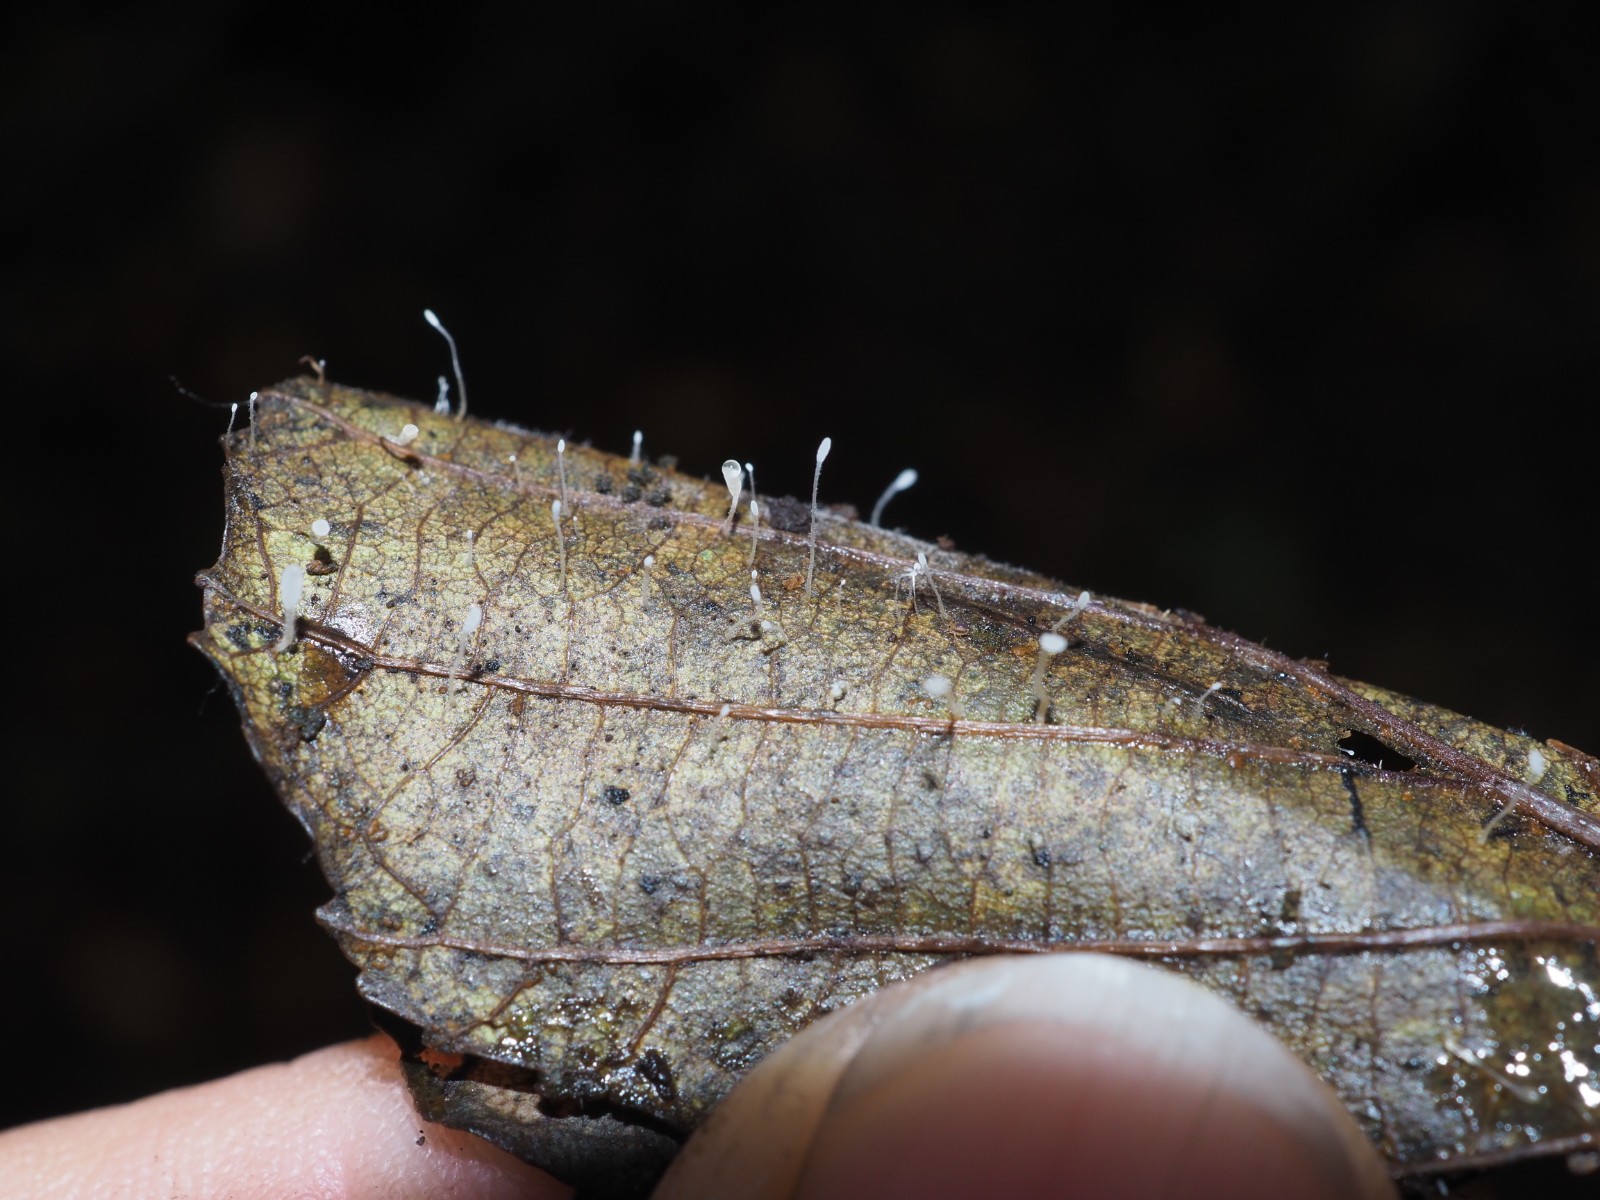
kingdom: Fungi
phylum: Basidiomycota
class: Agaricomycetes
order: Agaricales
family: Typhulaceae
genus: Typhula
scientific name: Typhula setipes
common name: liden trådkølle
